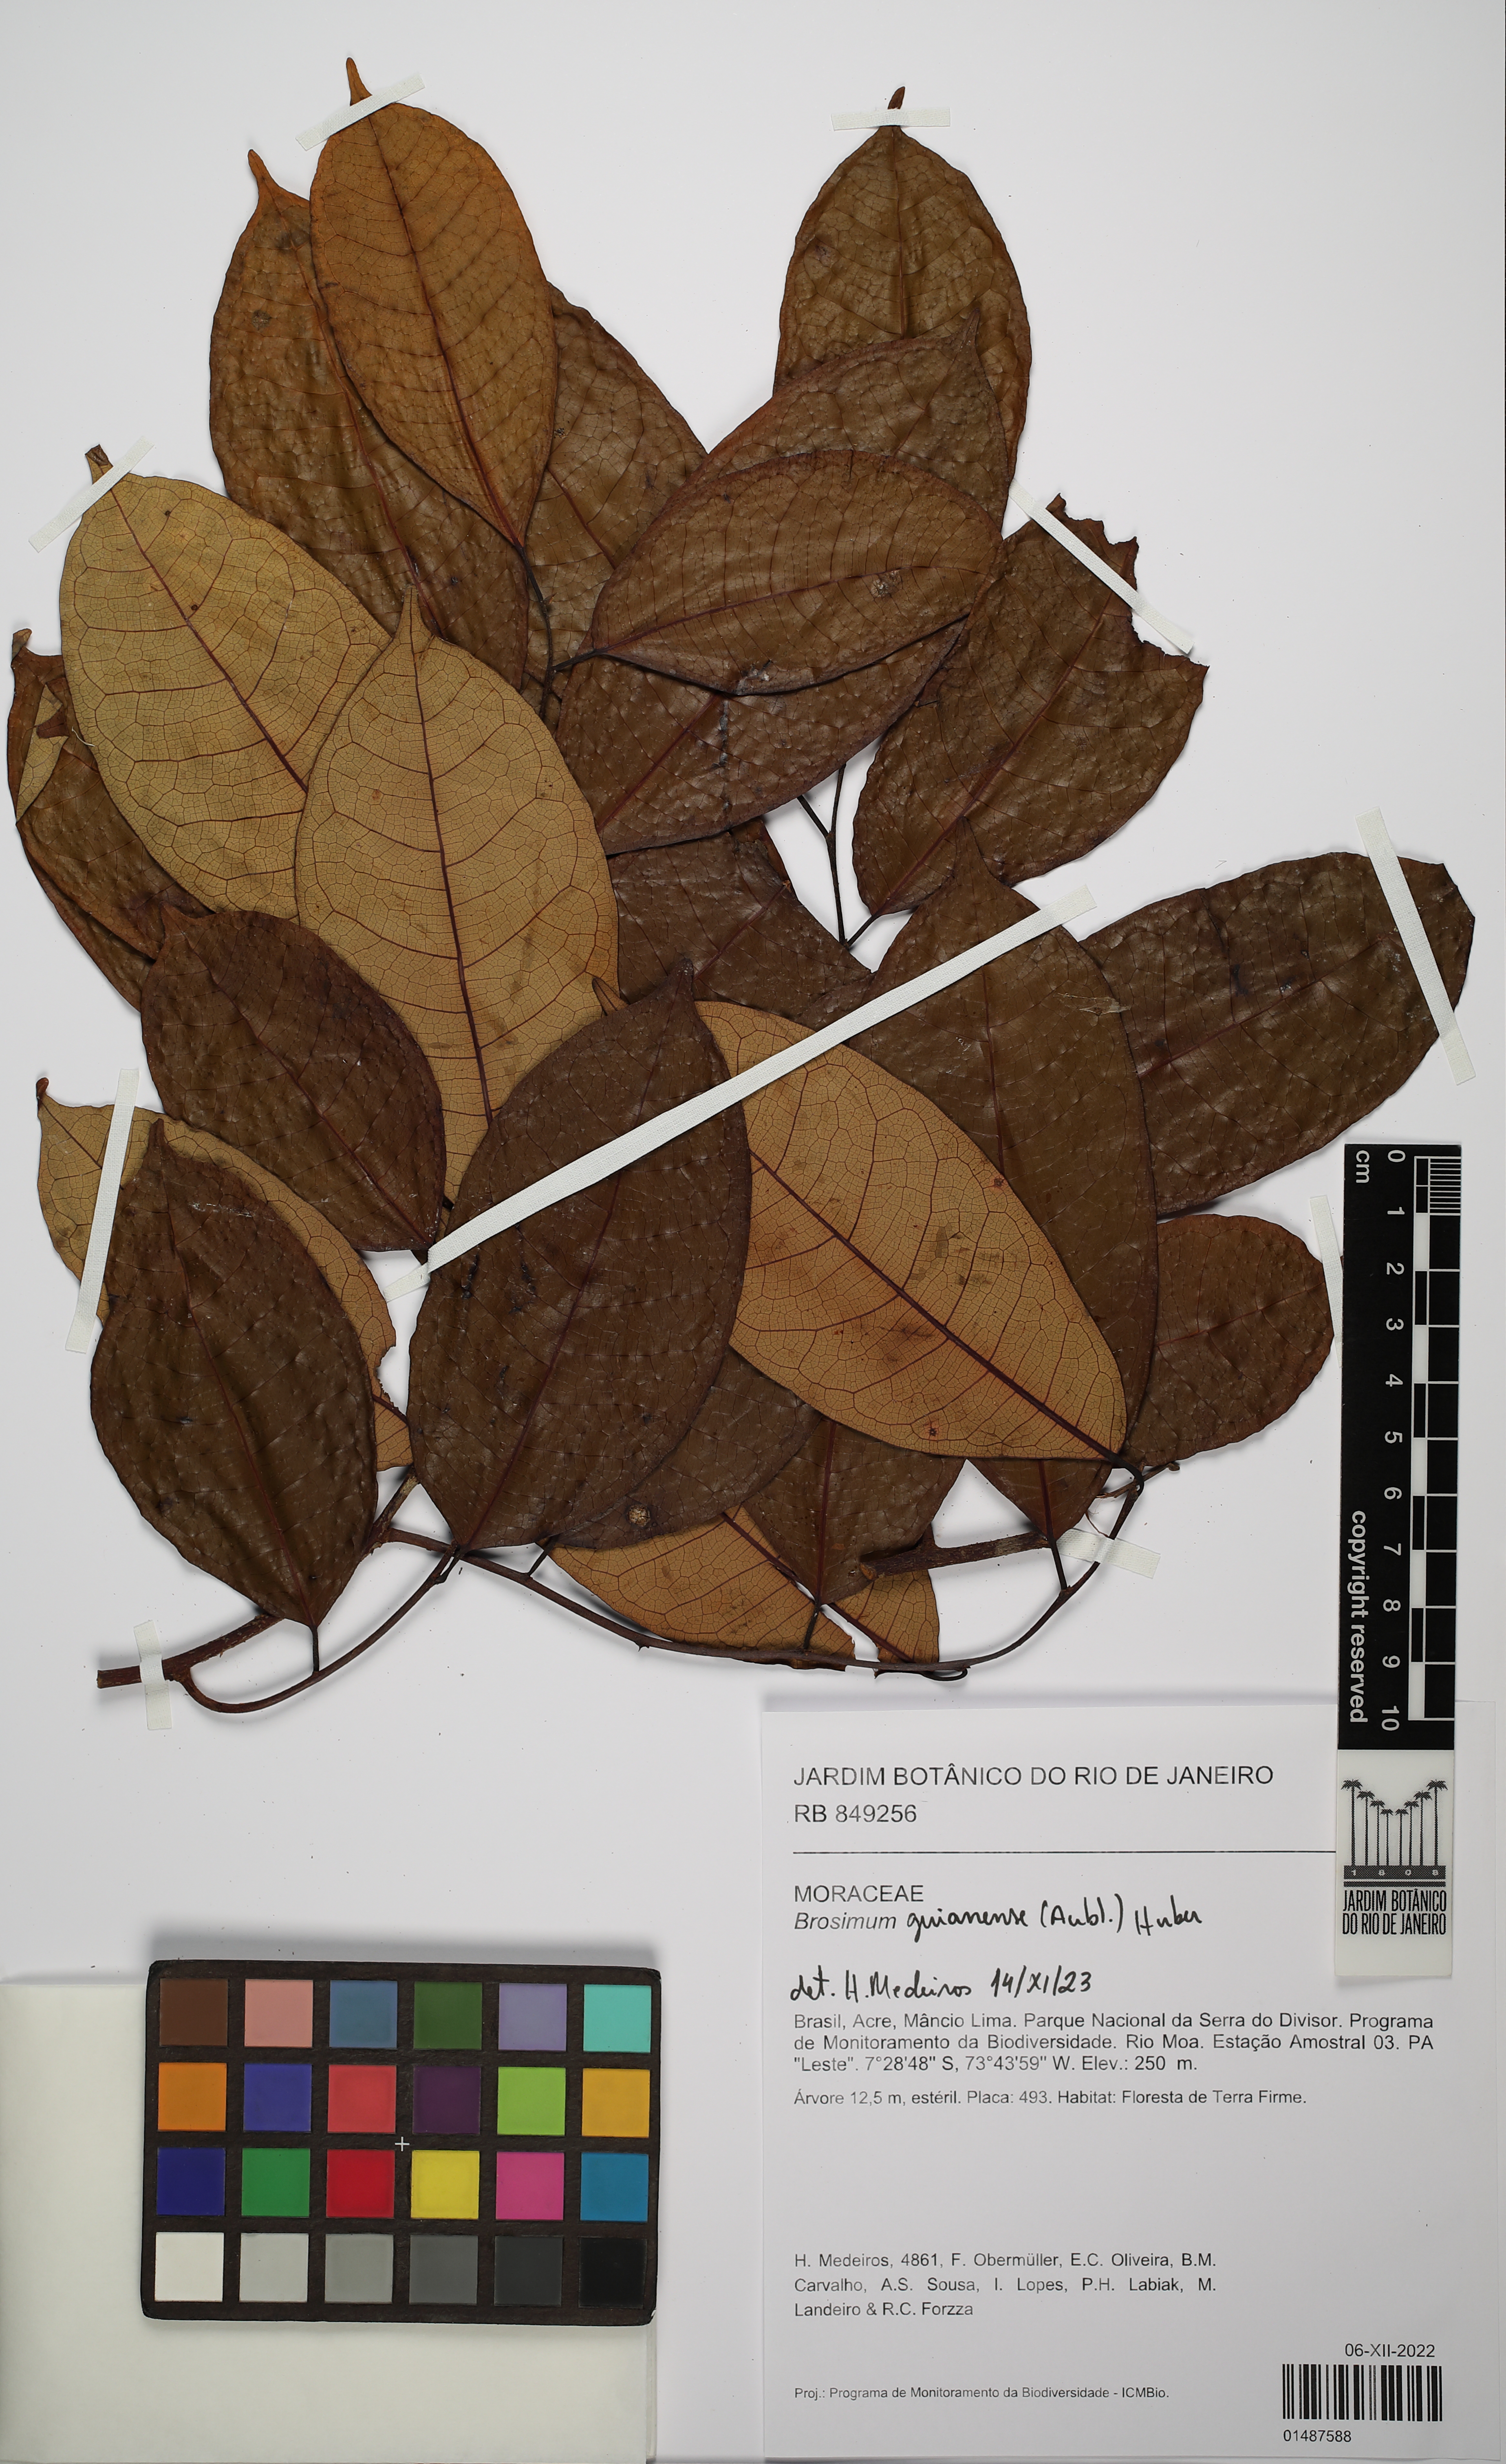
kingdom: Plantae
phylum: Tracheophyta
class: Magnoliopsida
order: Rosales
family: Moraceae
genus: Brosimum
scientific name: Brosimum guianense
